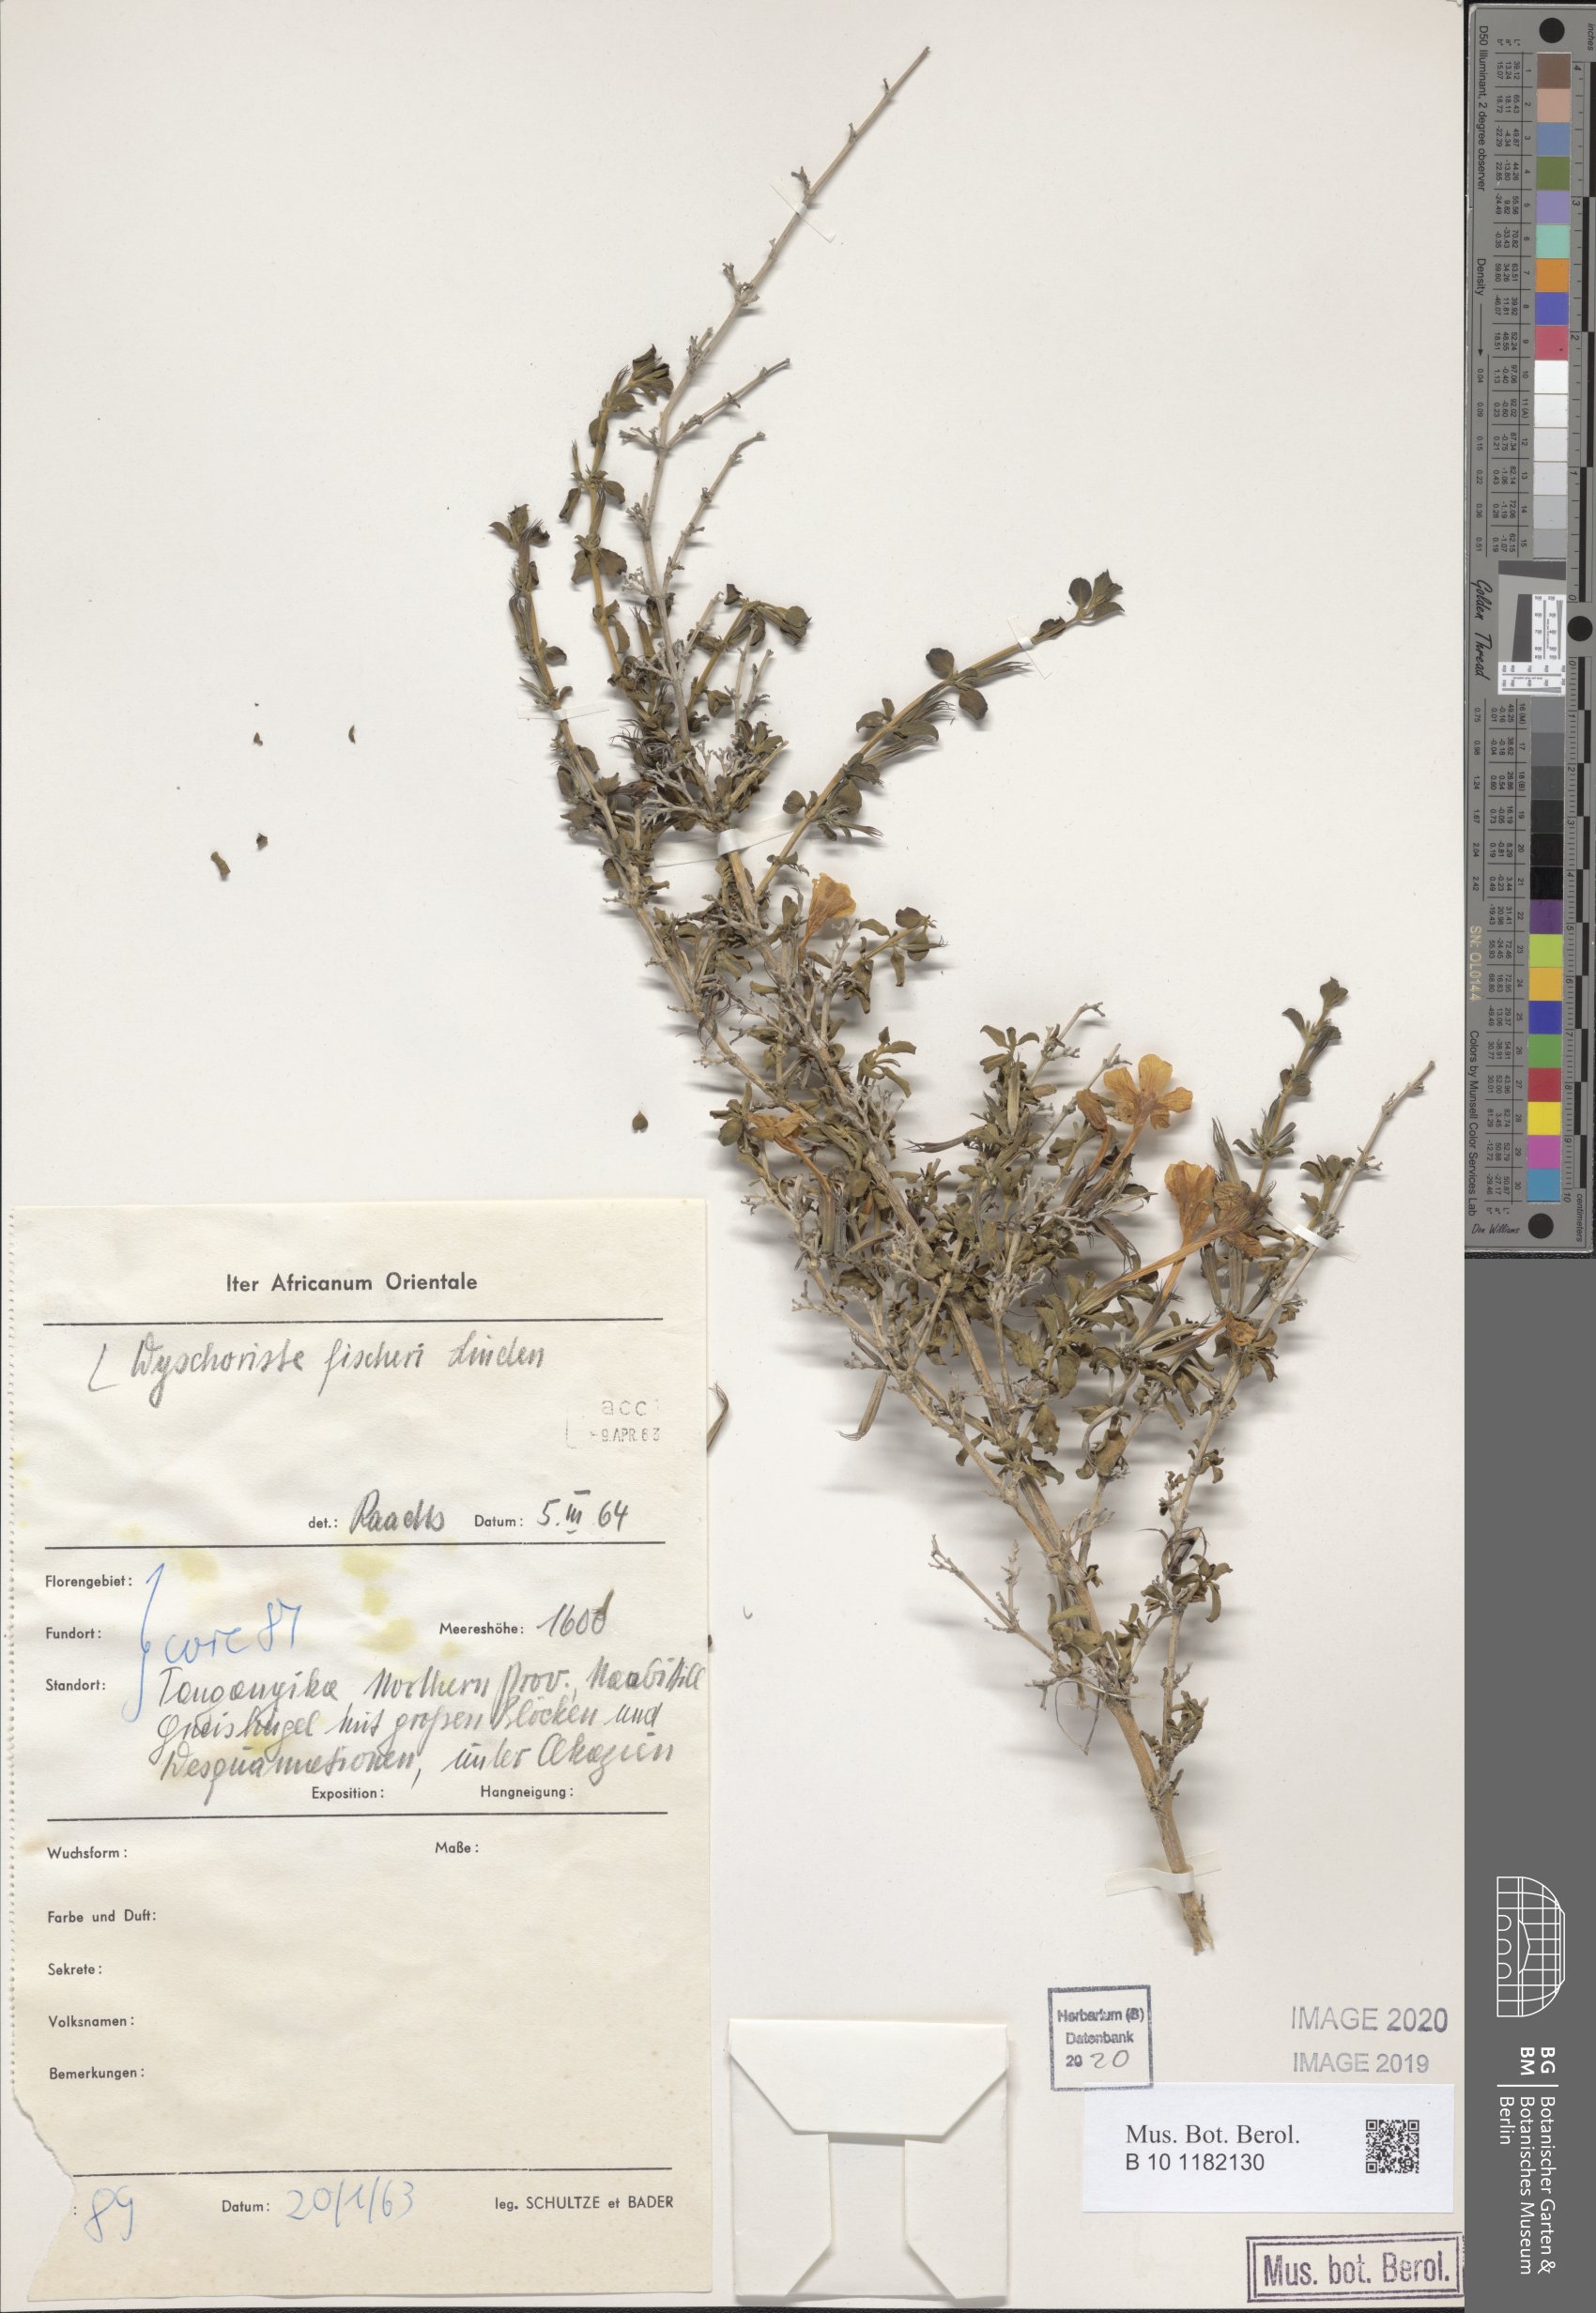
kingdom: Plantae
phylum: Tracheophyta
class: Magnoliopsida
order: Lamiales
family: Acanthaceae
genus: Dyschoriste
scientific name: Dyschoriste hildebrandtii
